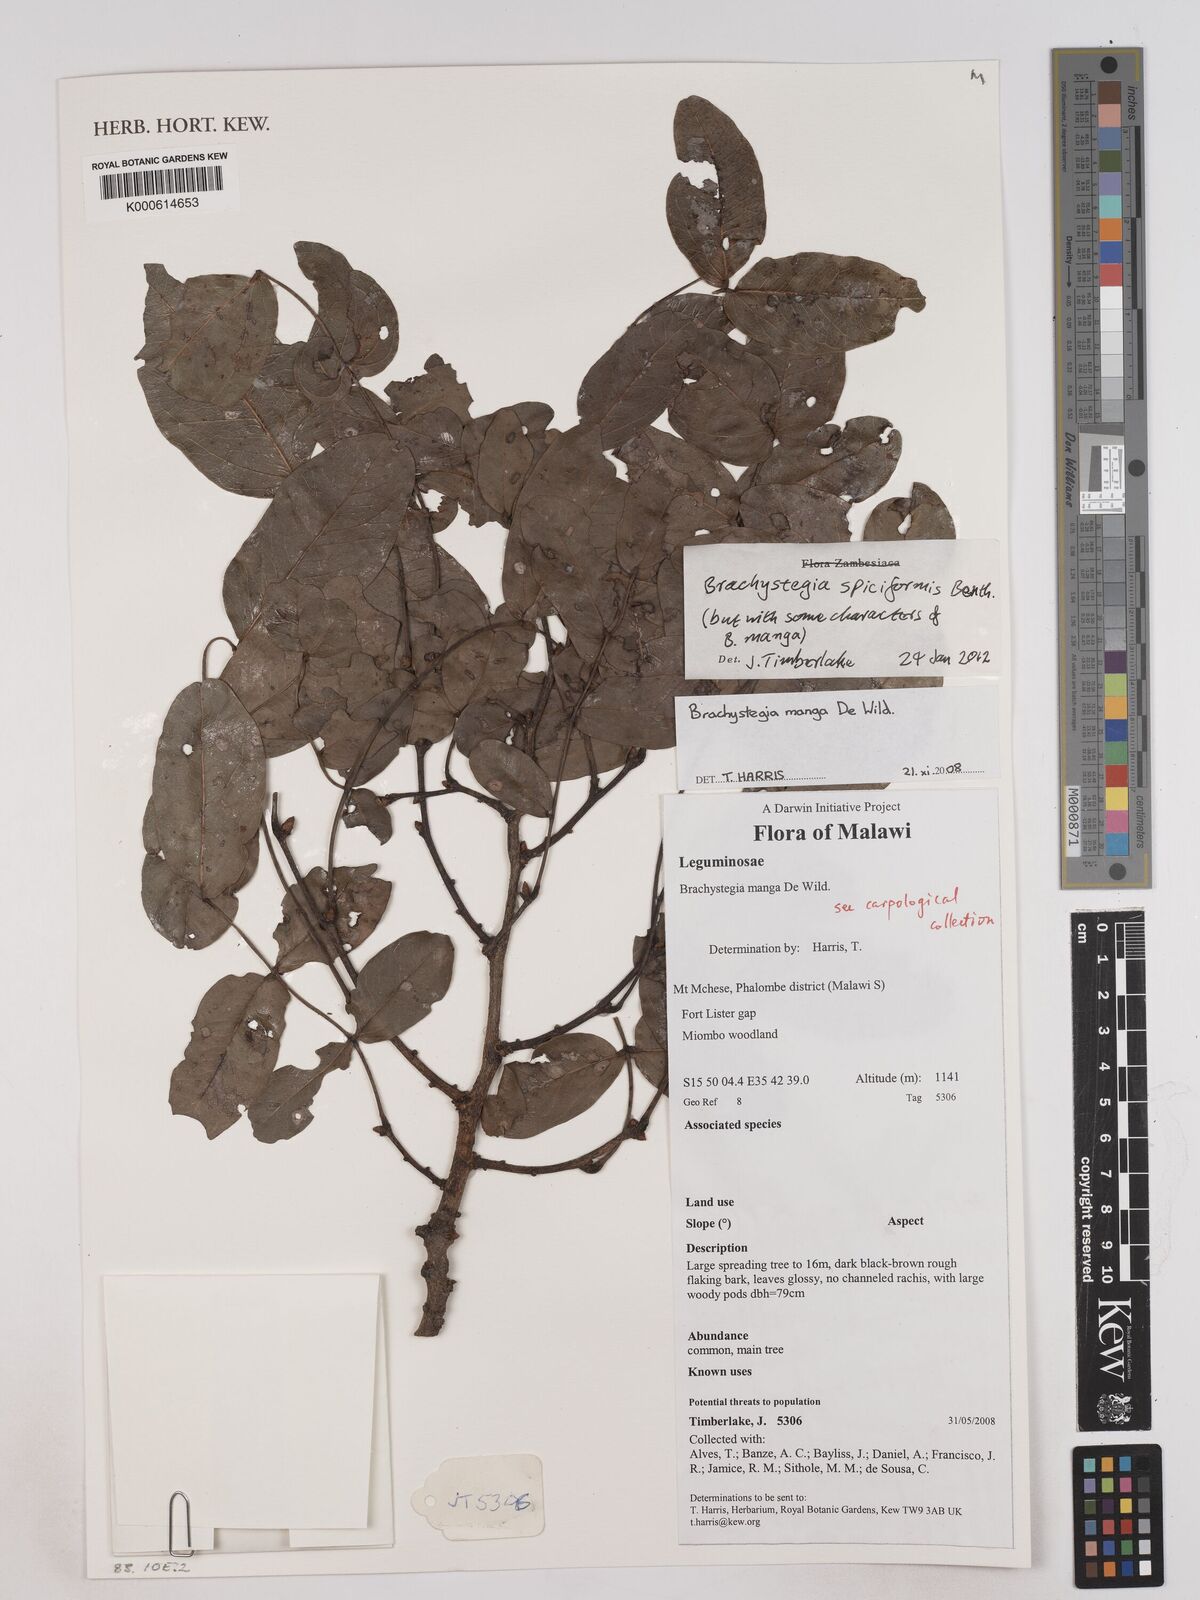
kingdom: Plantae
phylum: Tracheophyta
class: Magnoliopsida
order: Fabales
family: Fabaceae
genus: Brachystegia
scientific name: Brachystegia manga
